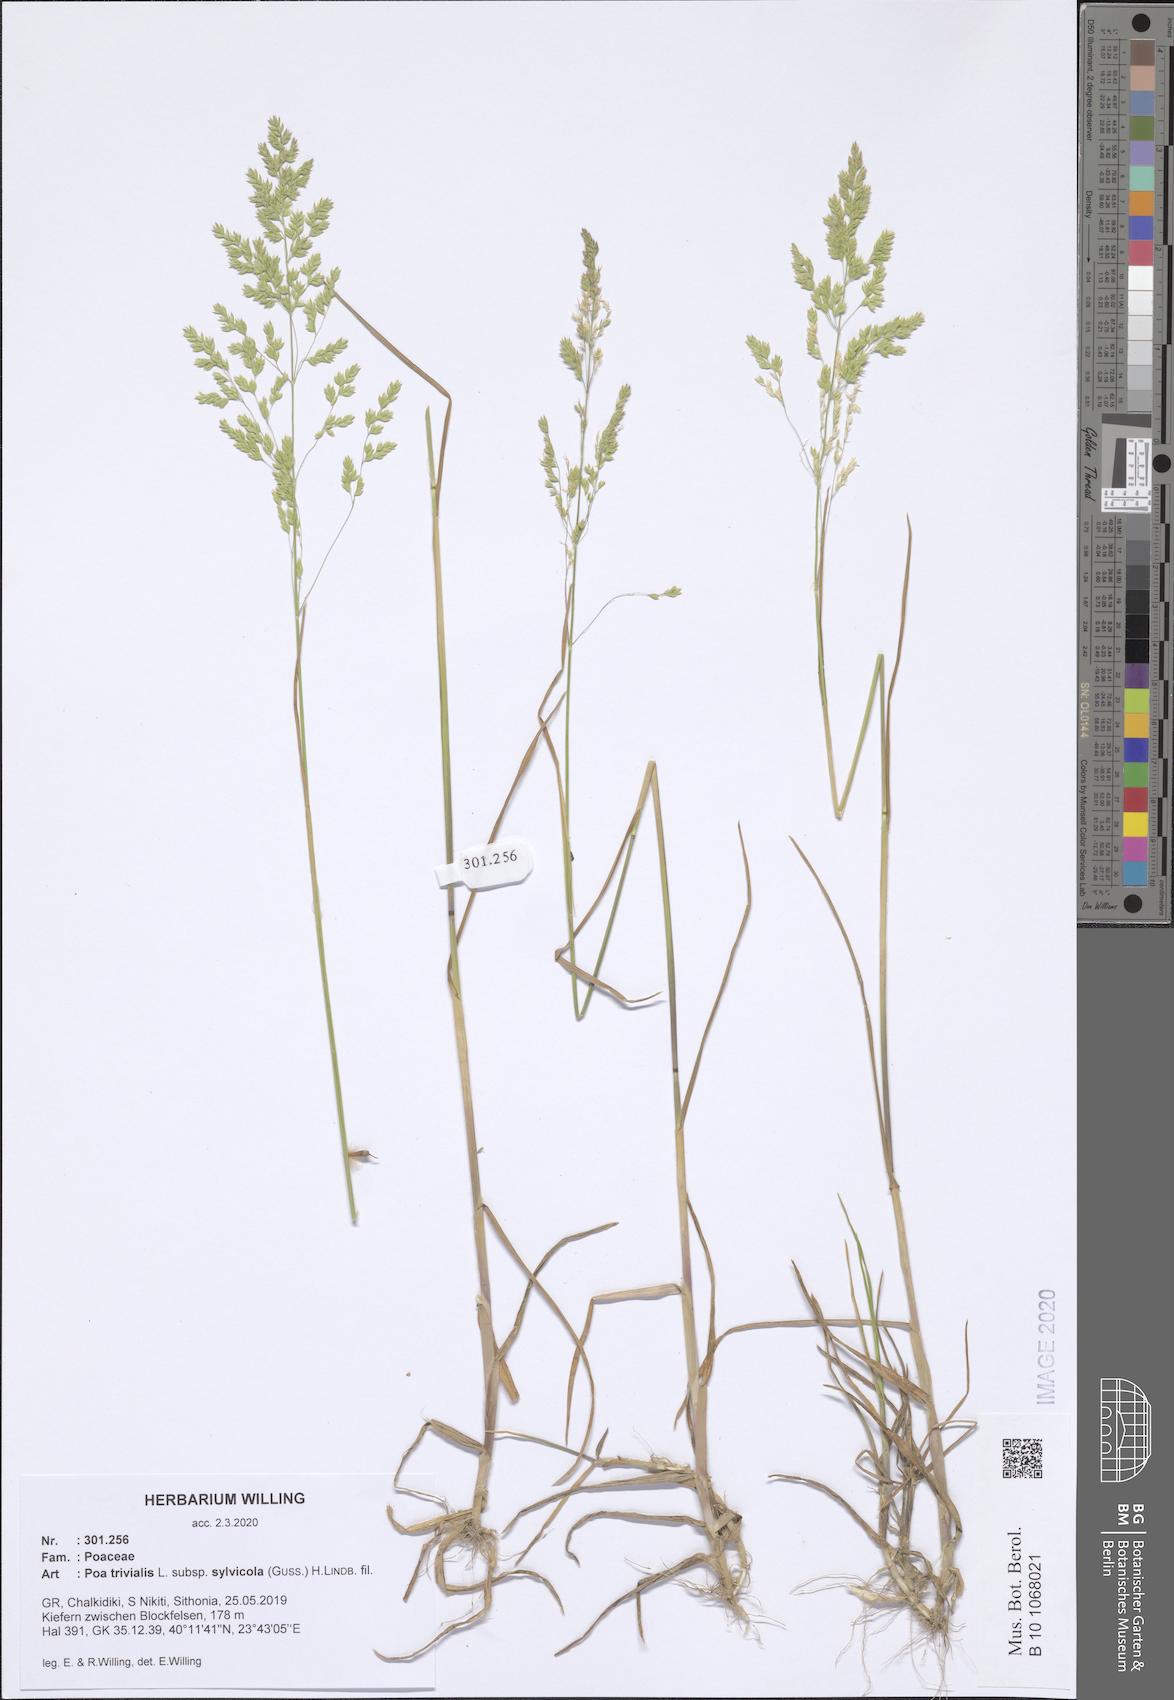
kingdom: Plantae
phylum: Tracheophyta
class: Liliopsida
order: Poales
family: Poaceae
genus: Poa
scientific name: Poa trivialis
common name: Rough bluegrass
